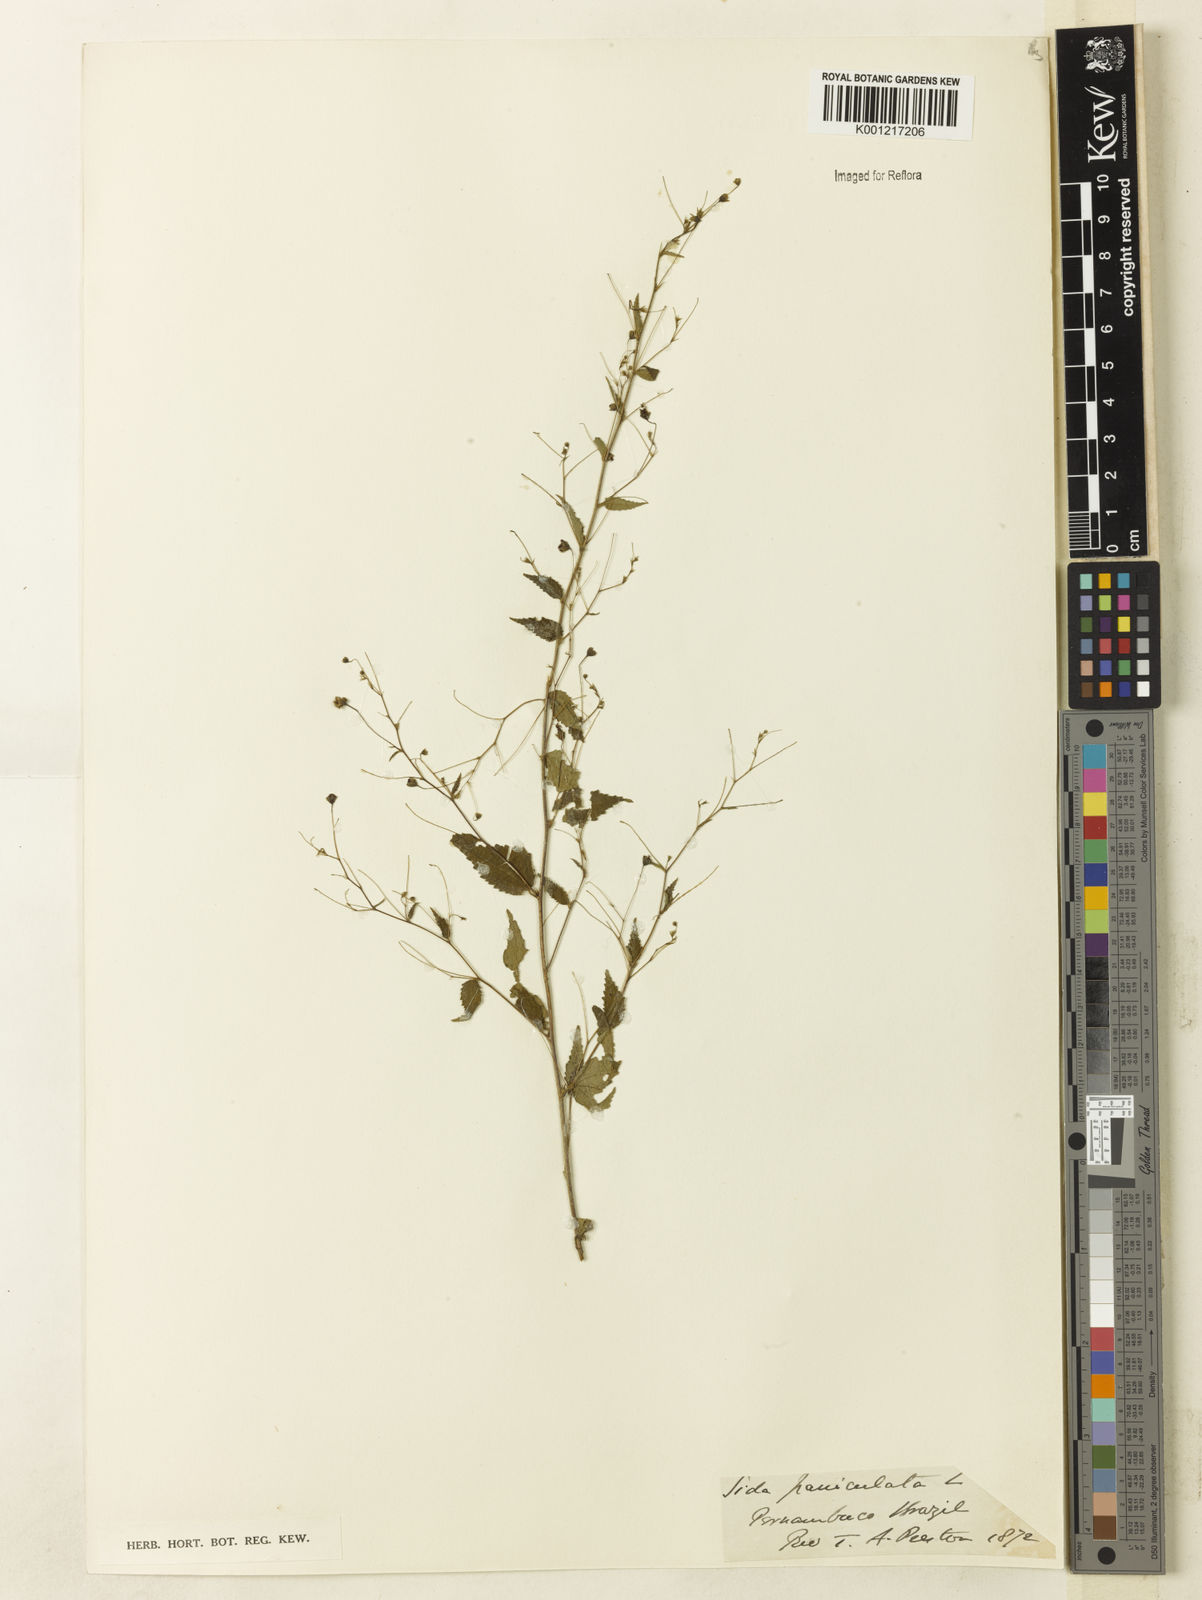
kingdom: Plantae
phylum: Tracheophyta
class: Magnoliopsida
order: Malvales
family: Malvaceae
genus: Sidastrum
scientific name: Sidastrum paniculatum
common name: Panicled sandmallow
